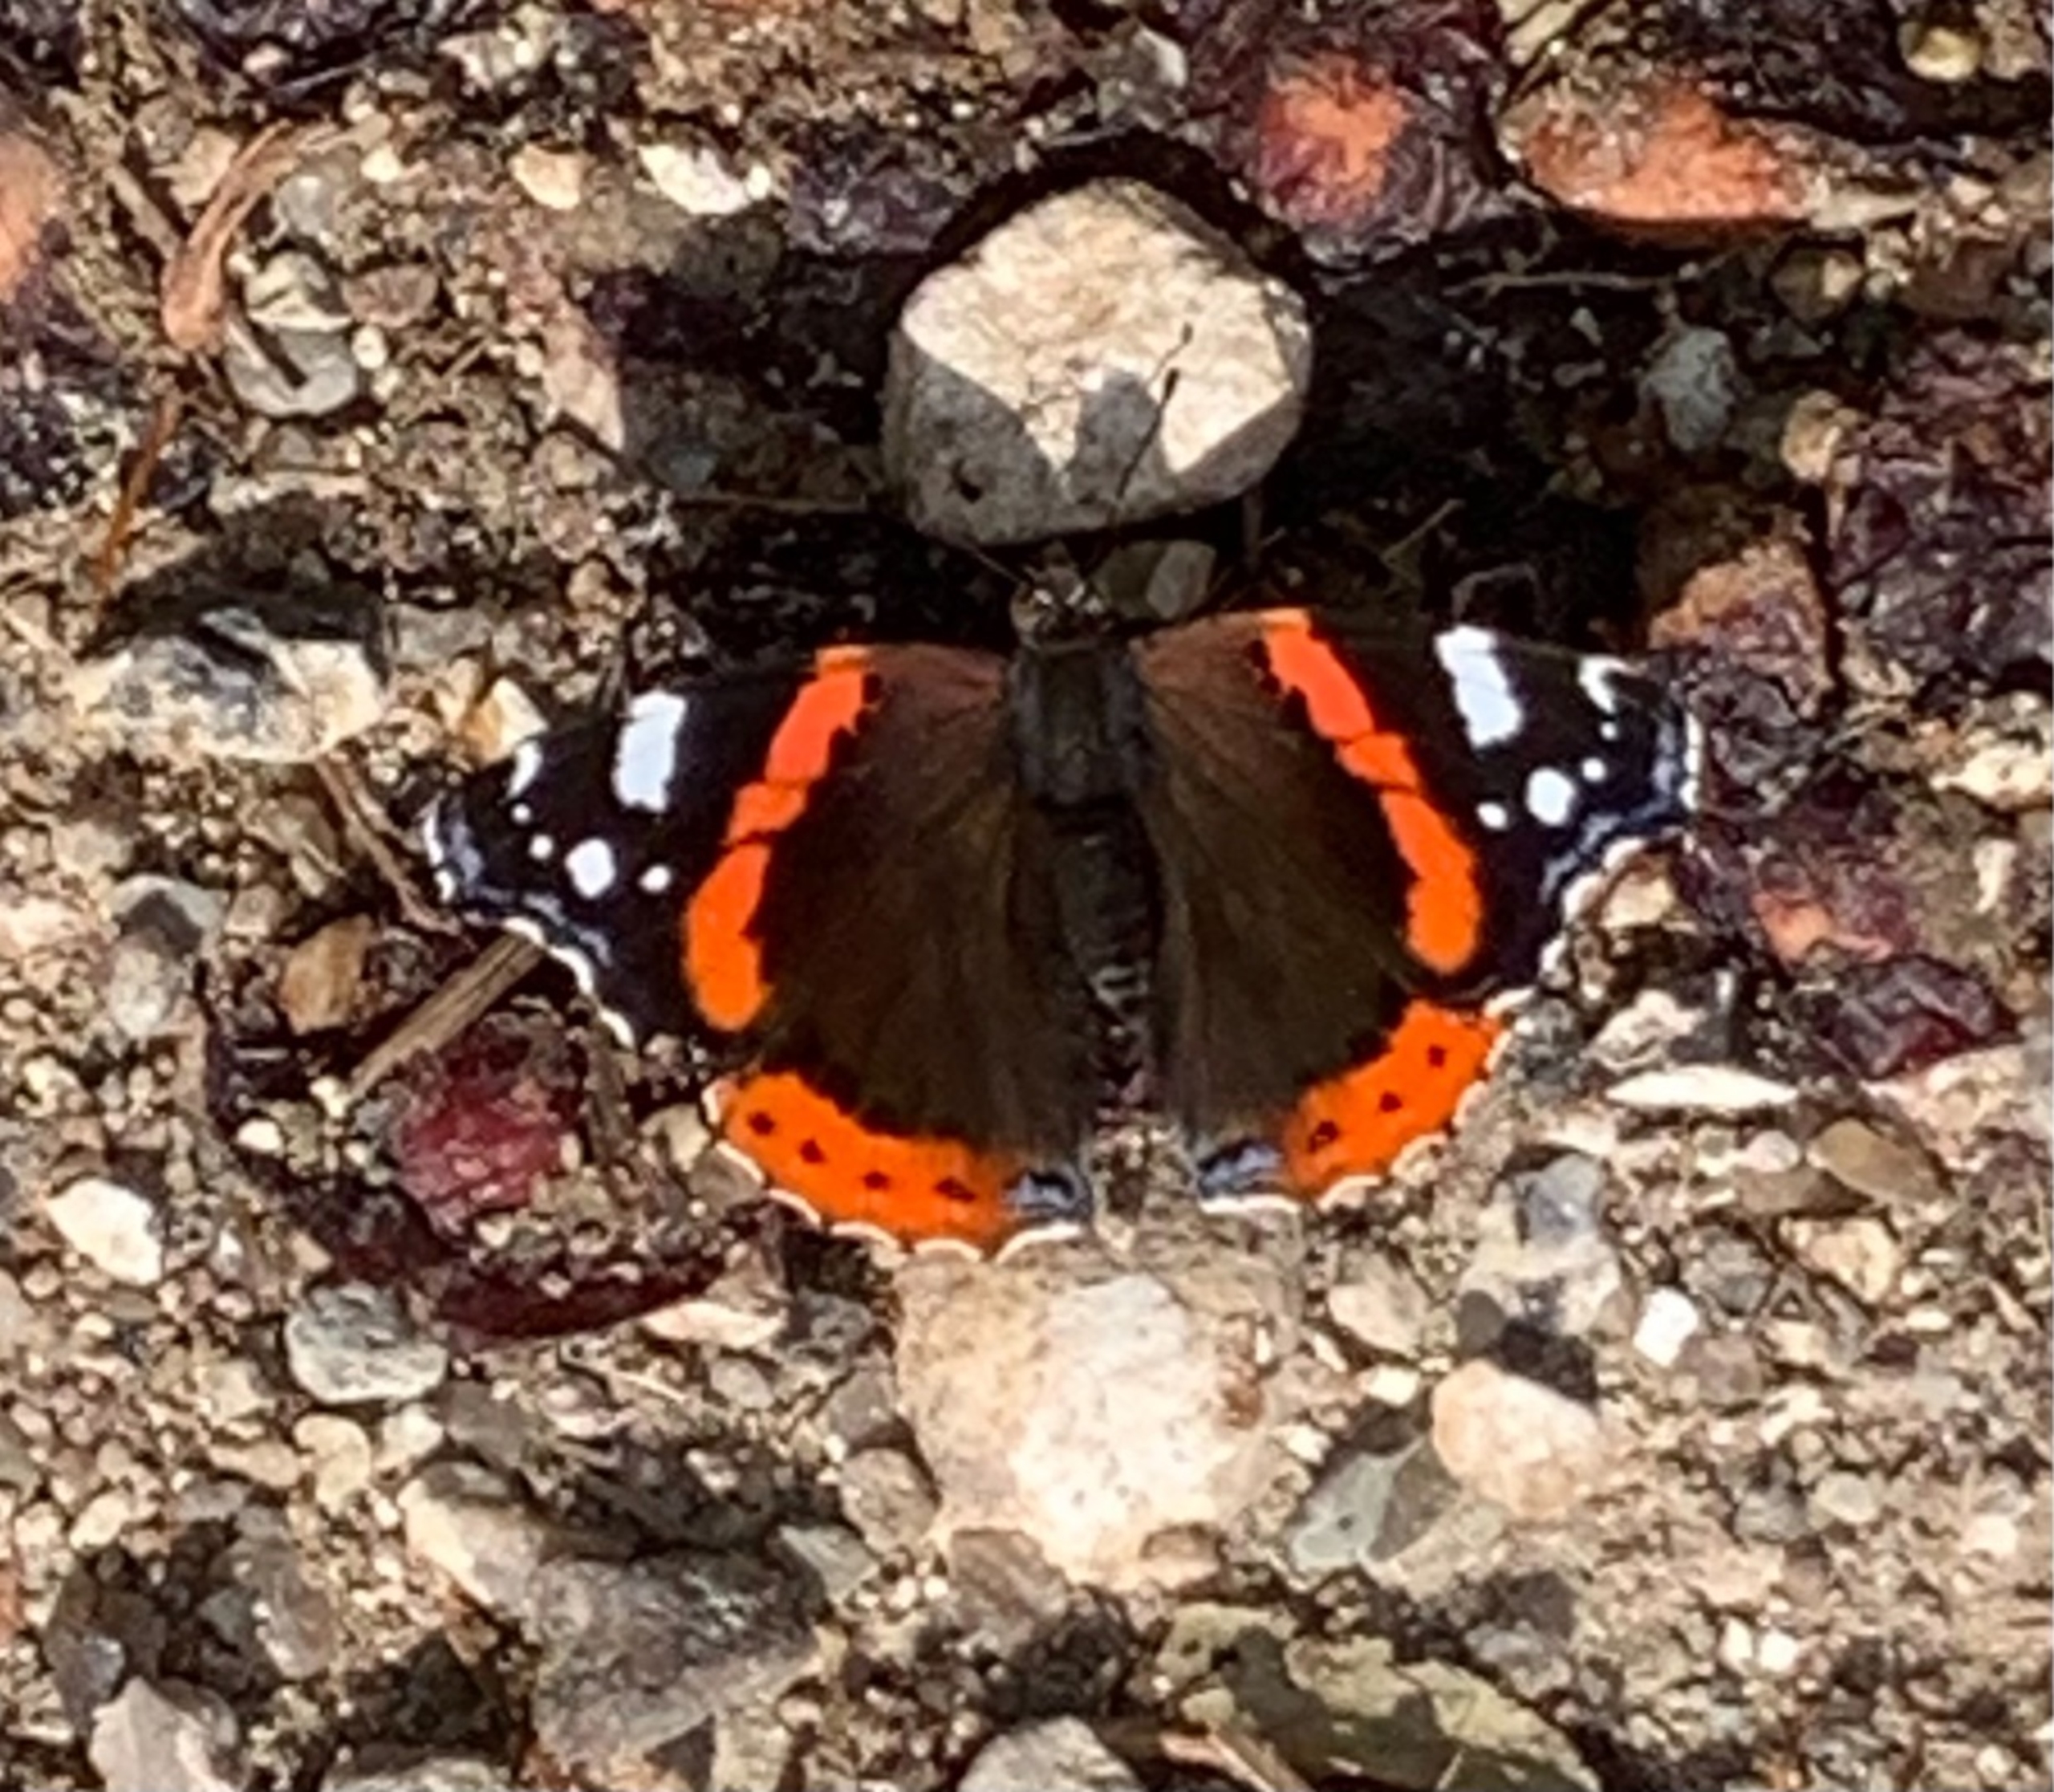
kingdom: Animalia
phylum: Arthropoda
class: Insecta
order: Lepidoptera
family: Nymphalidae
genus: Vanessa
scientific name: Vanessa atalanta
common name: Admiral
